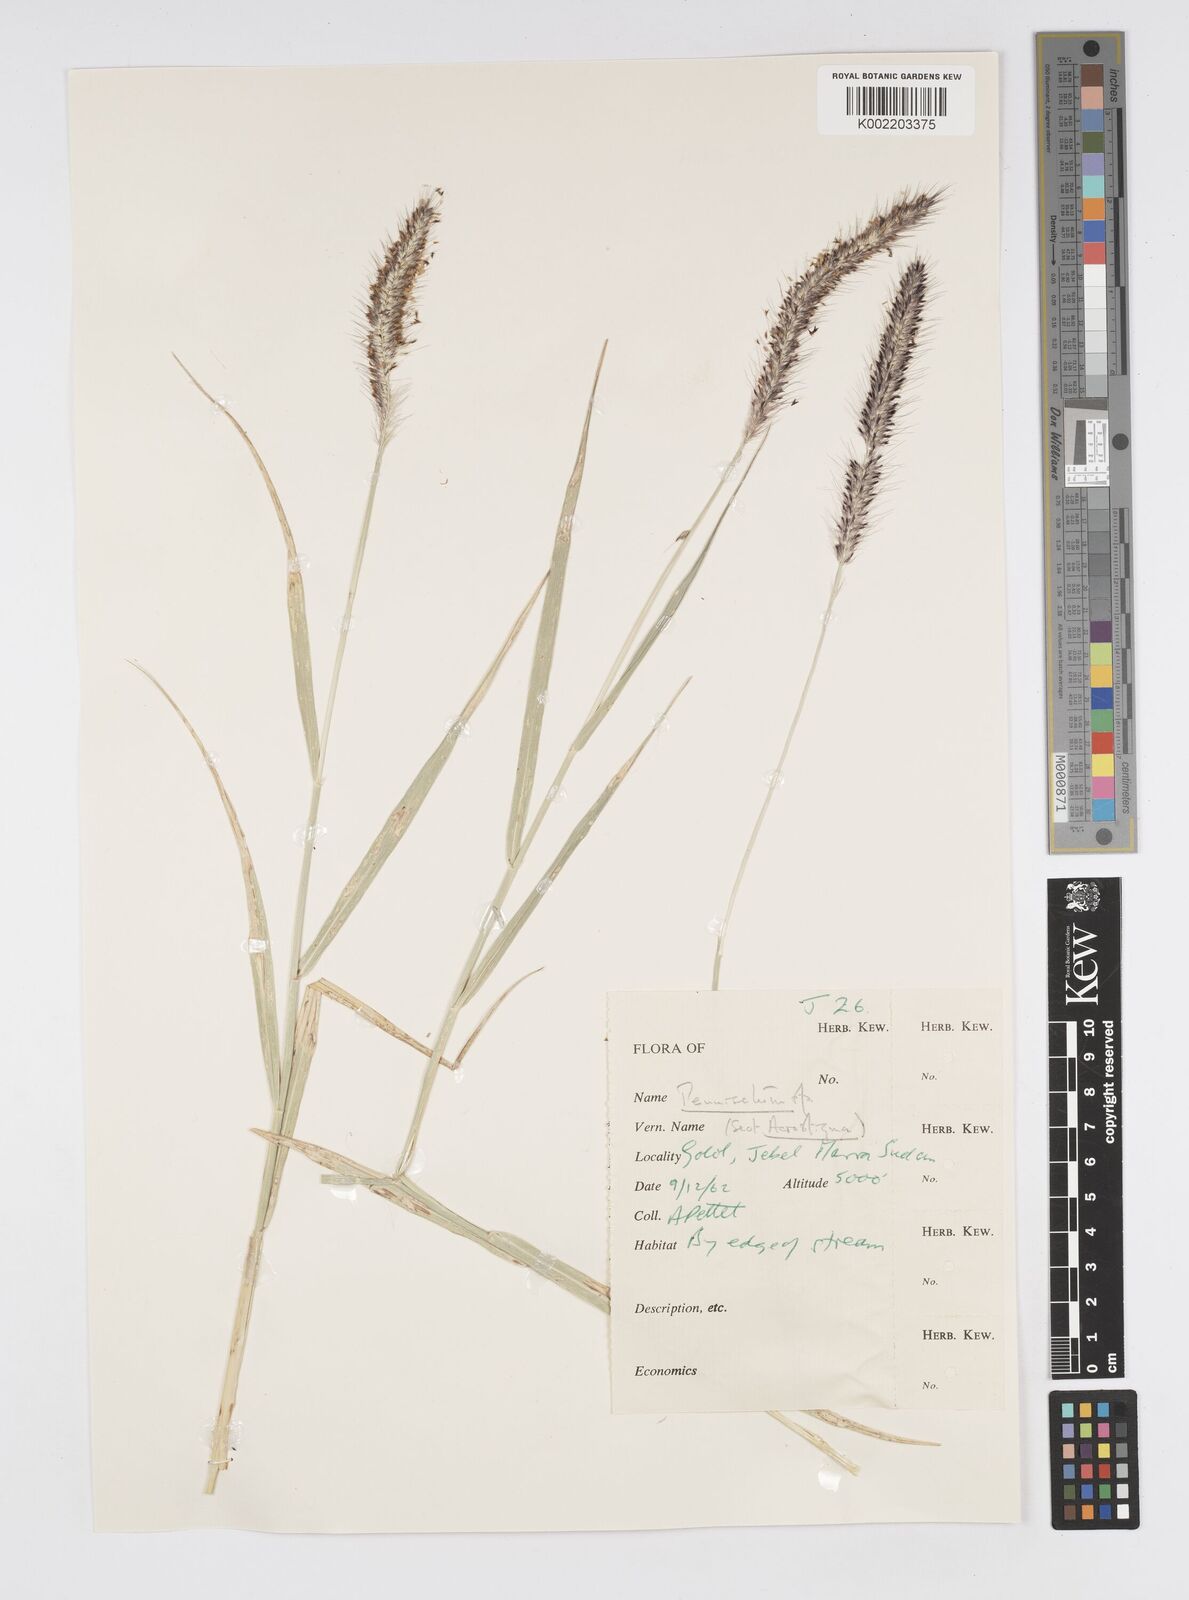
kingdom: Plantae
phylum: Tracheophyta
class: Liliopsida
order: Poales
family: Poaceae
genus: Cenchrus
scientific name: Cenchrus caudatus
